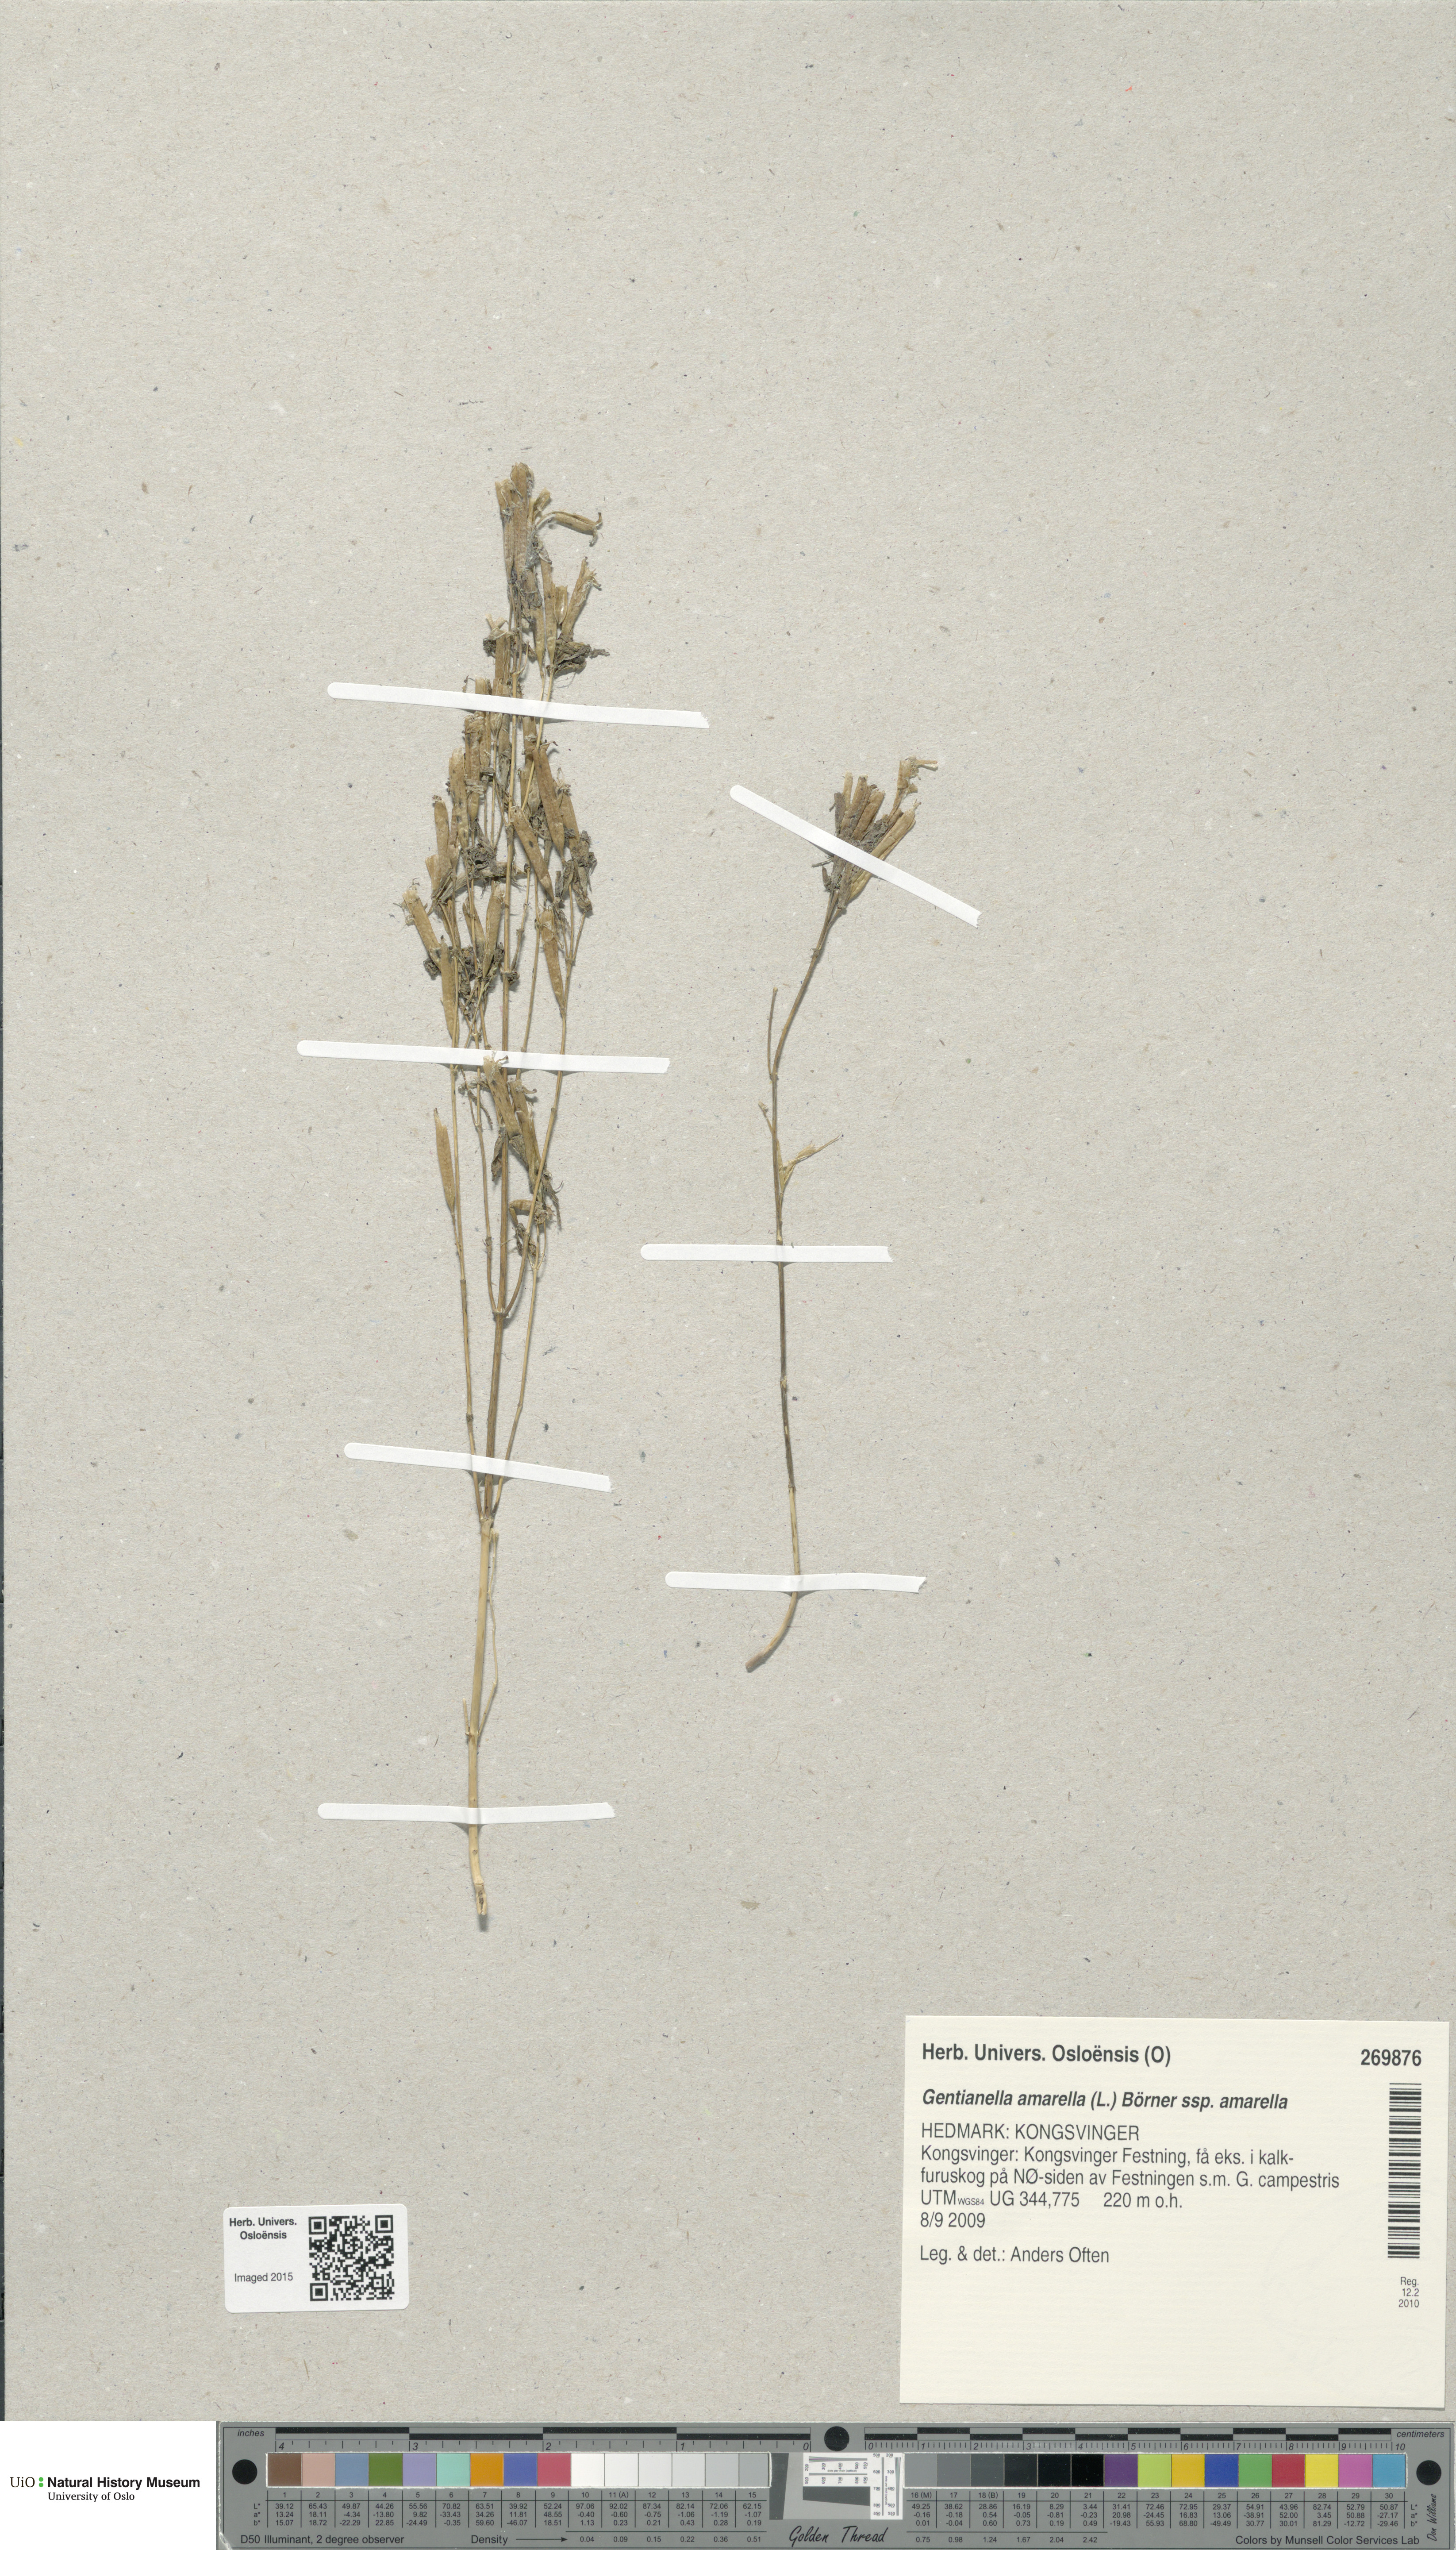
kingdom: Plantae
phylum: Tracheophyta
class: Magnoliopsida
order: Gentianales
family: Gentianaceae
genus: Gentianella
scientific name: Gentianella amarella
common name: Autumn gentian
